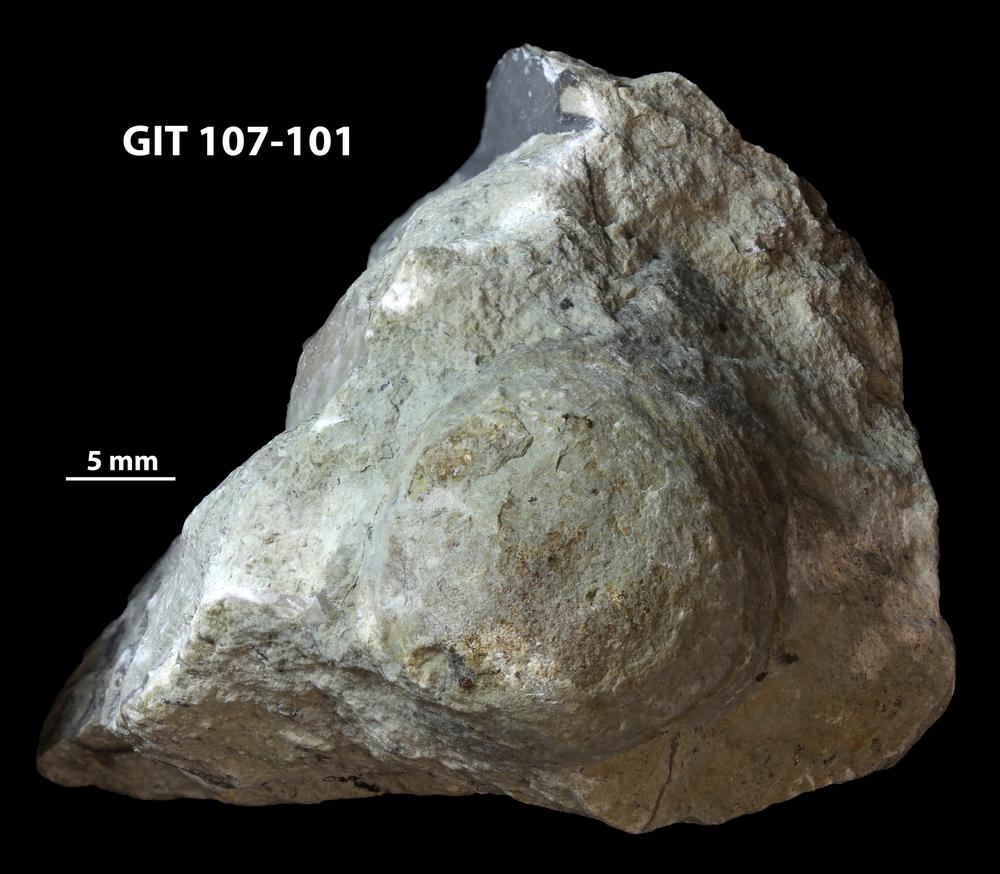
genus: Amphorichnus
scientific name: Amphorichnus
